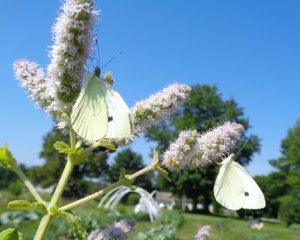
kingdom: Animalia
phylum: Arthropoda
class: Insecta
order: Lepidoptera
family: Pieridae
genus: Pieris
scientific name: Pieris rapae
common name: Cabbage White
